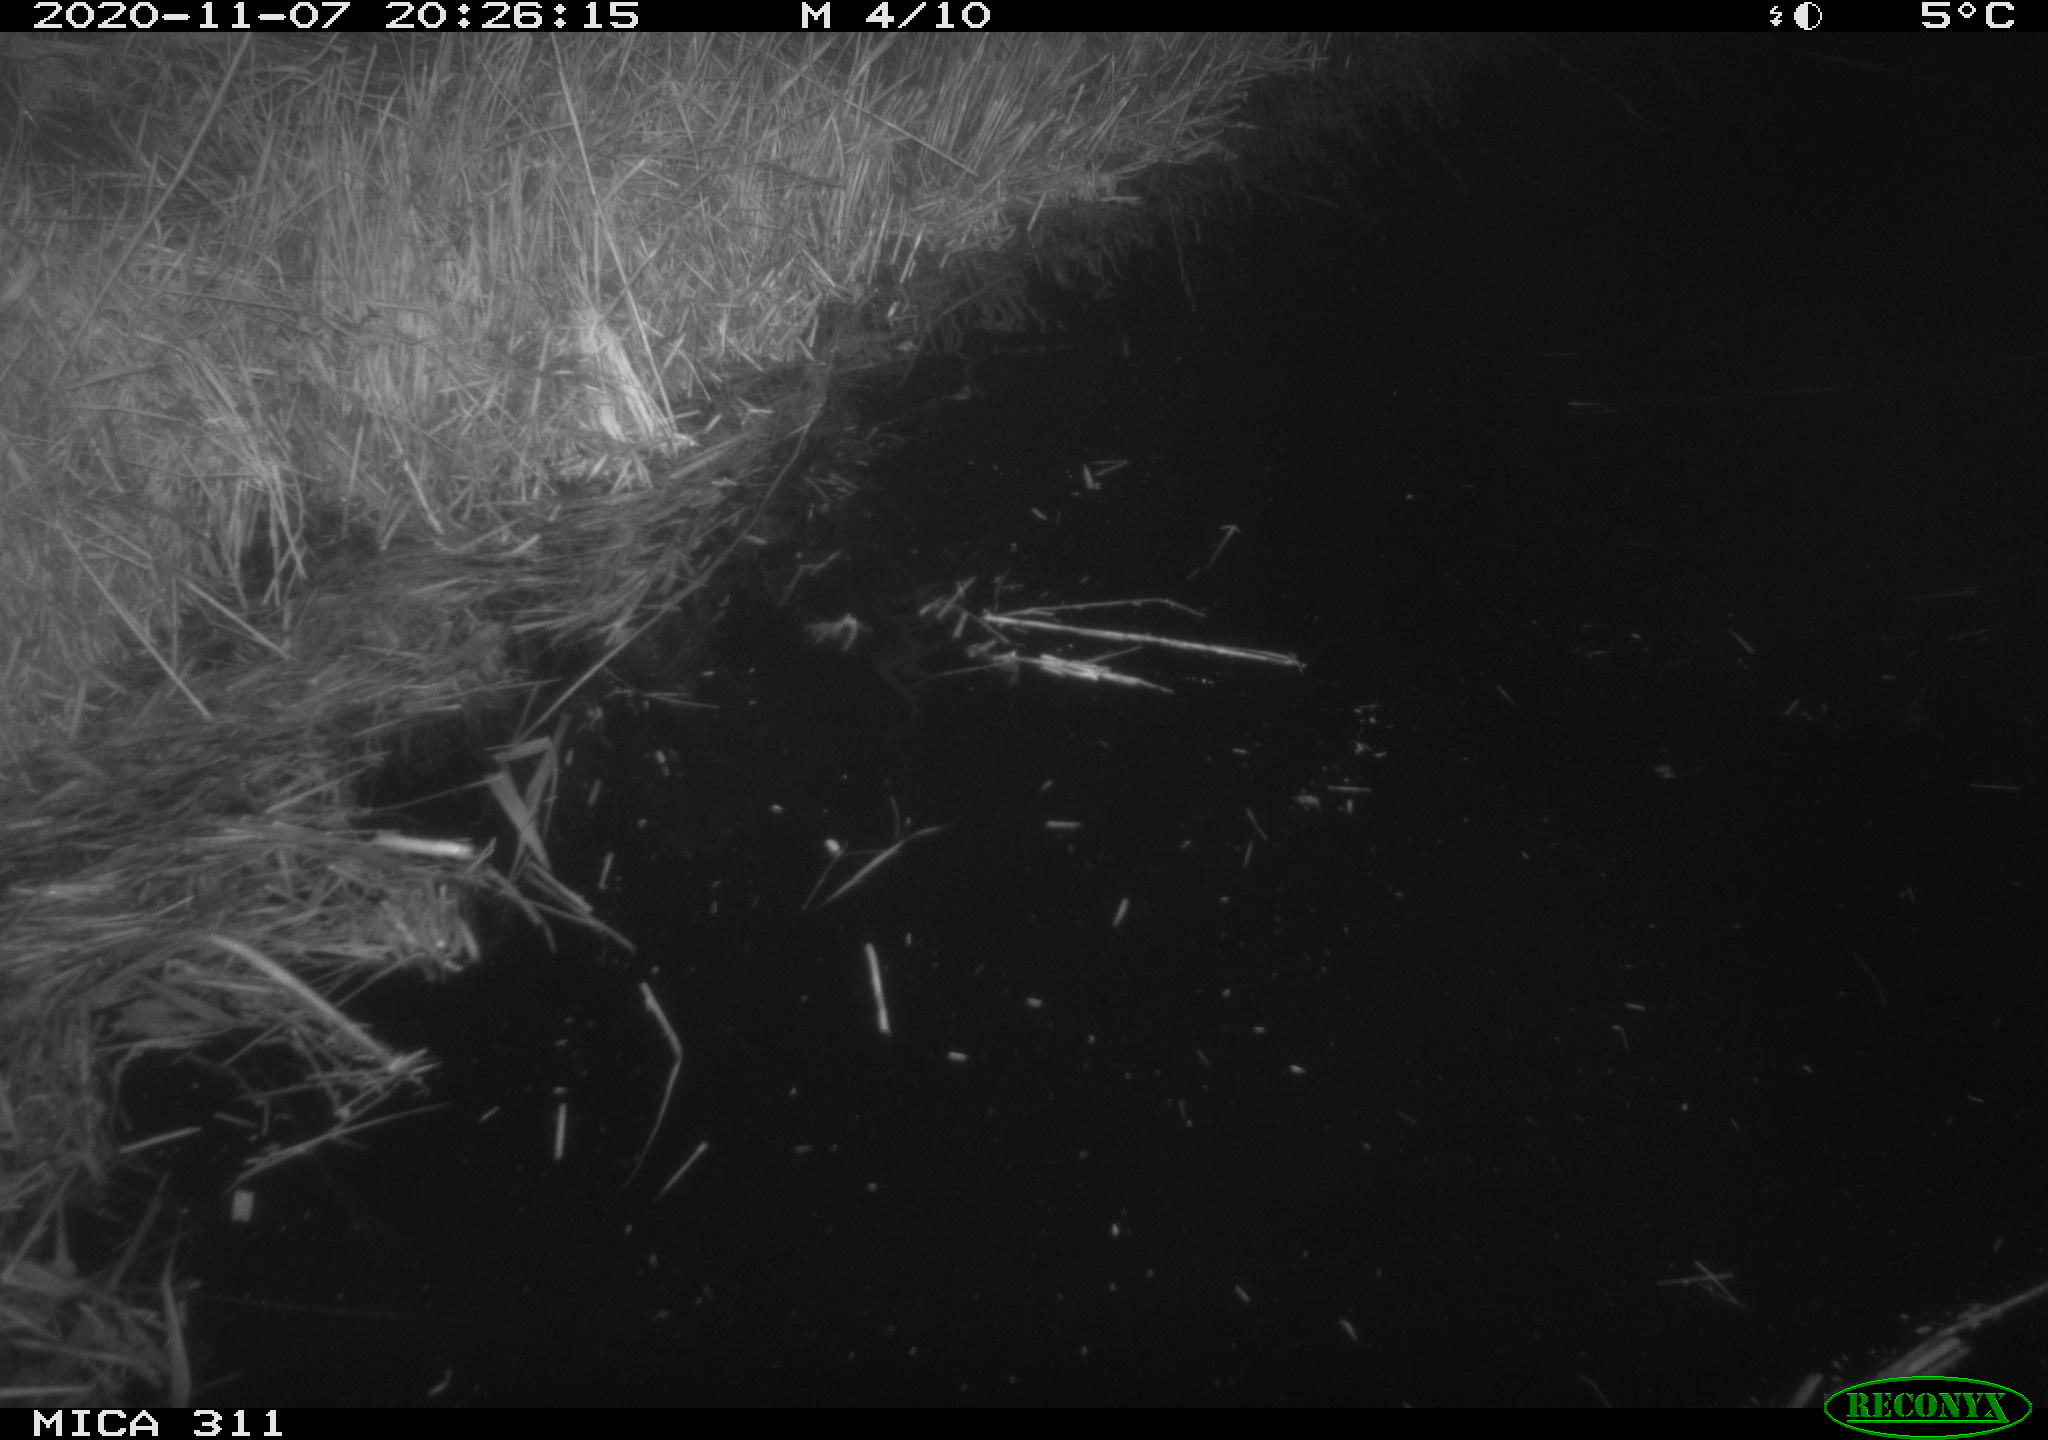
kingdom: Animalia
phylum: Chordata
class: Mammalia
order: Rodentia
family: Muridae
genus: Rattus
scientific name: Rattus norvegicus
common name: Brown rat
